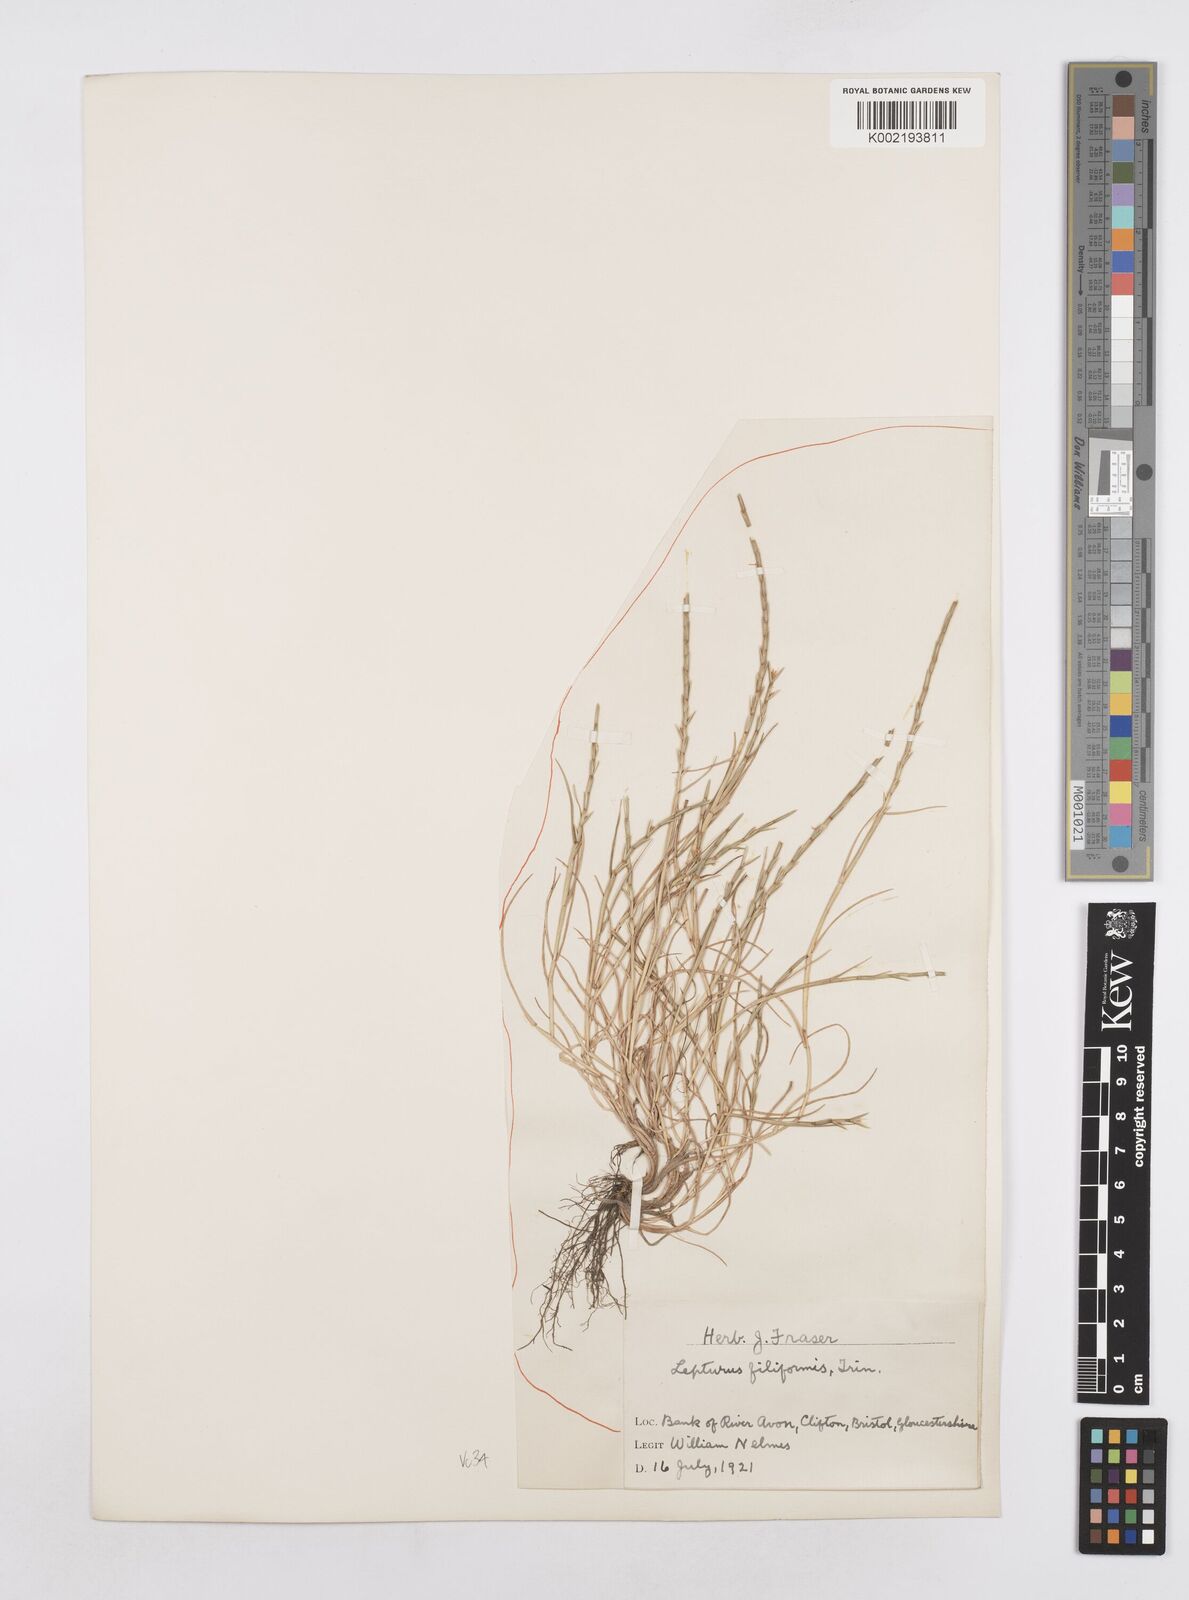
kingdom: Plantae
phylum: Tracheophyta
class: Liliopsida
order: Poales
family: Poaceae
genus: Parapholis
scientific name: Parapholis strigosa
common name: Hard-grass
